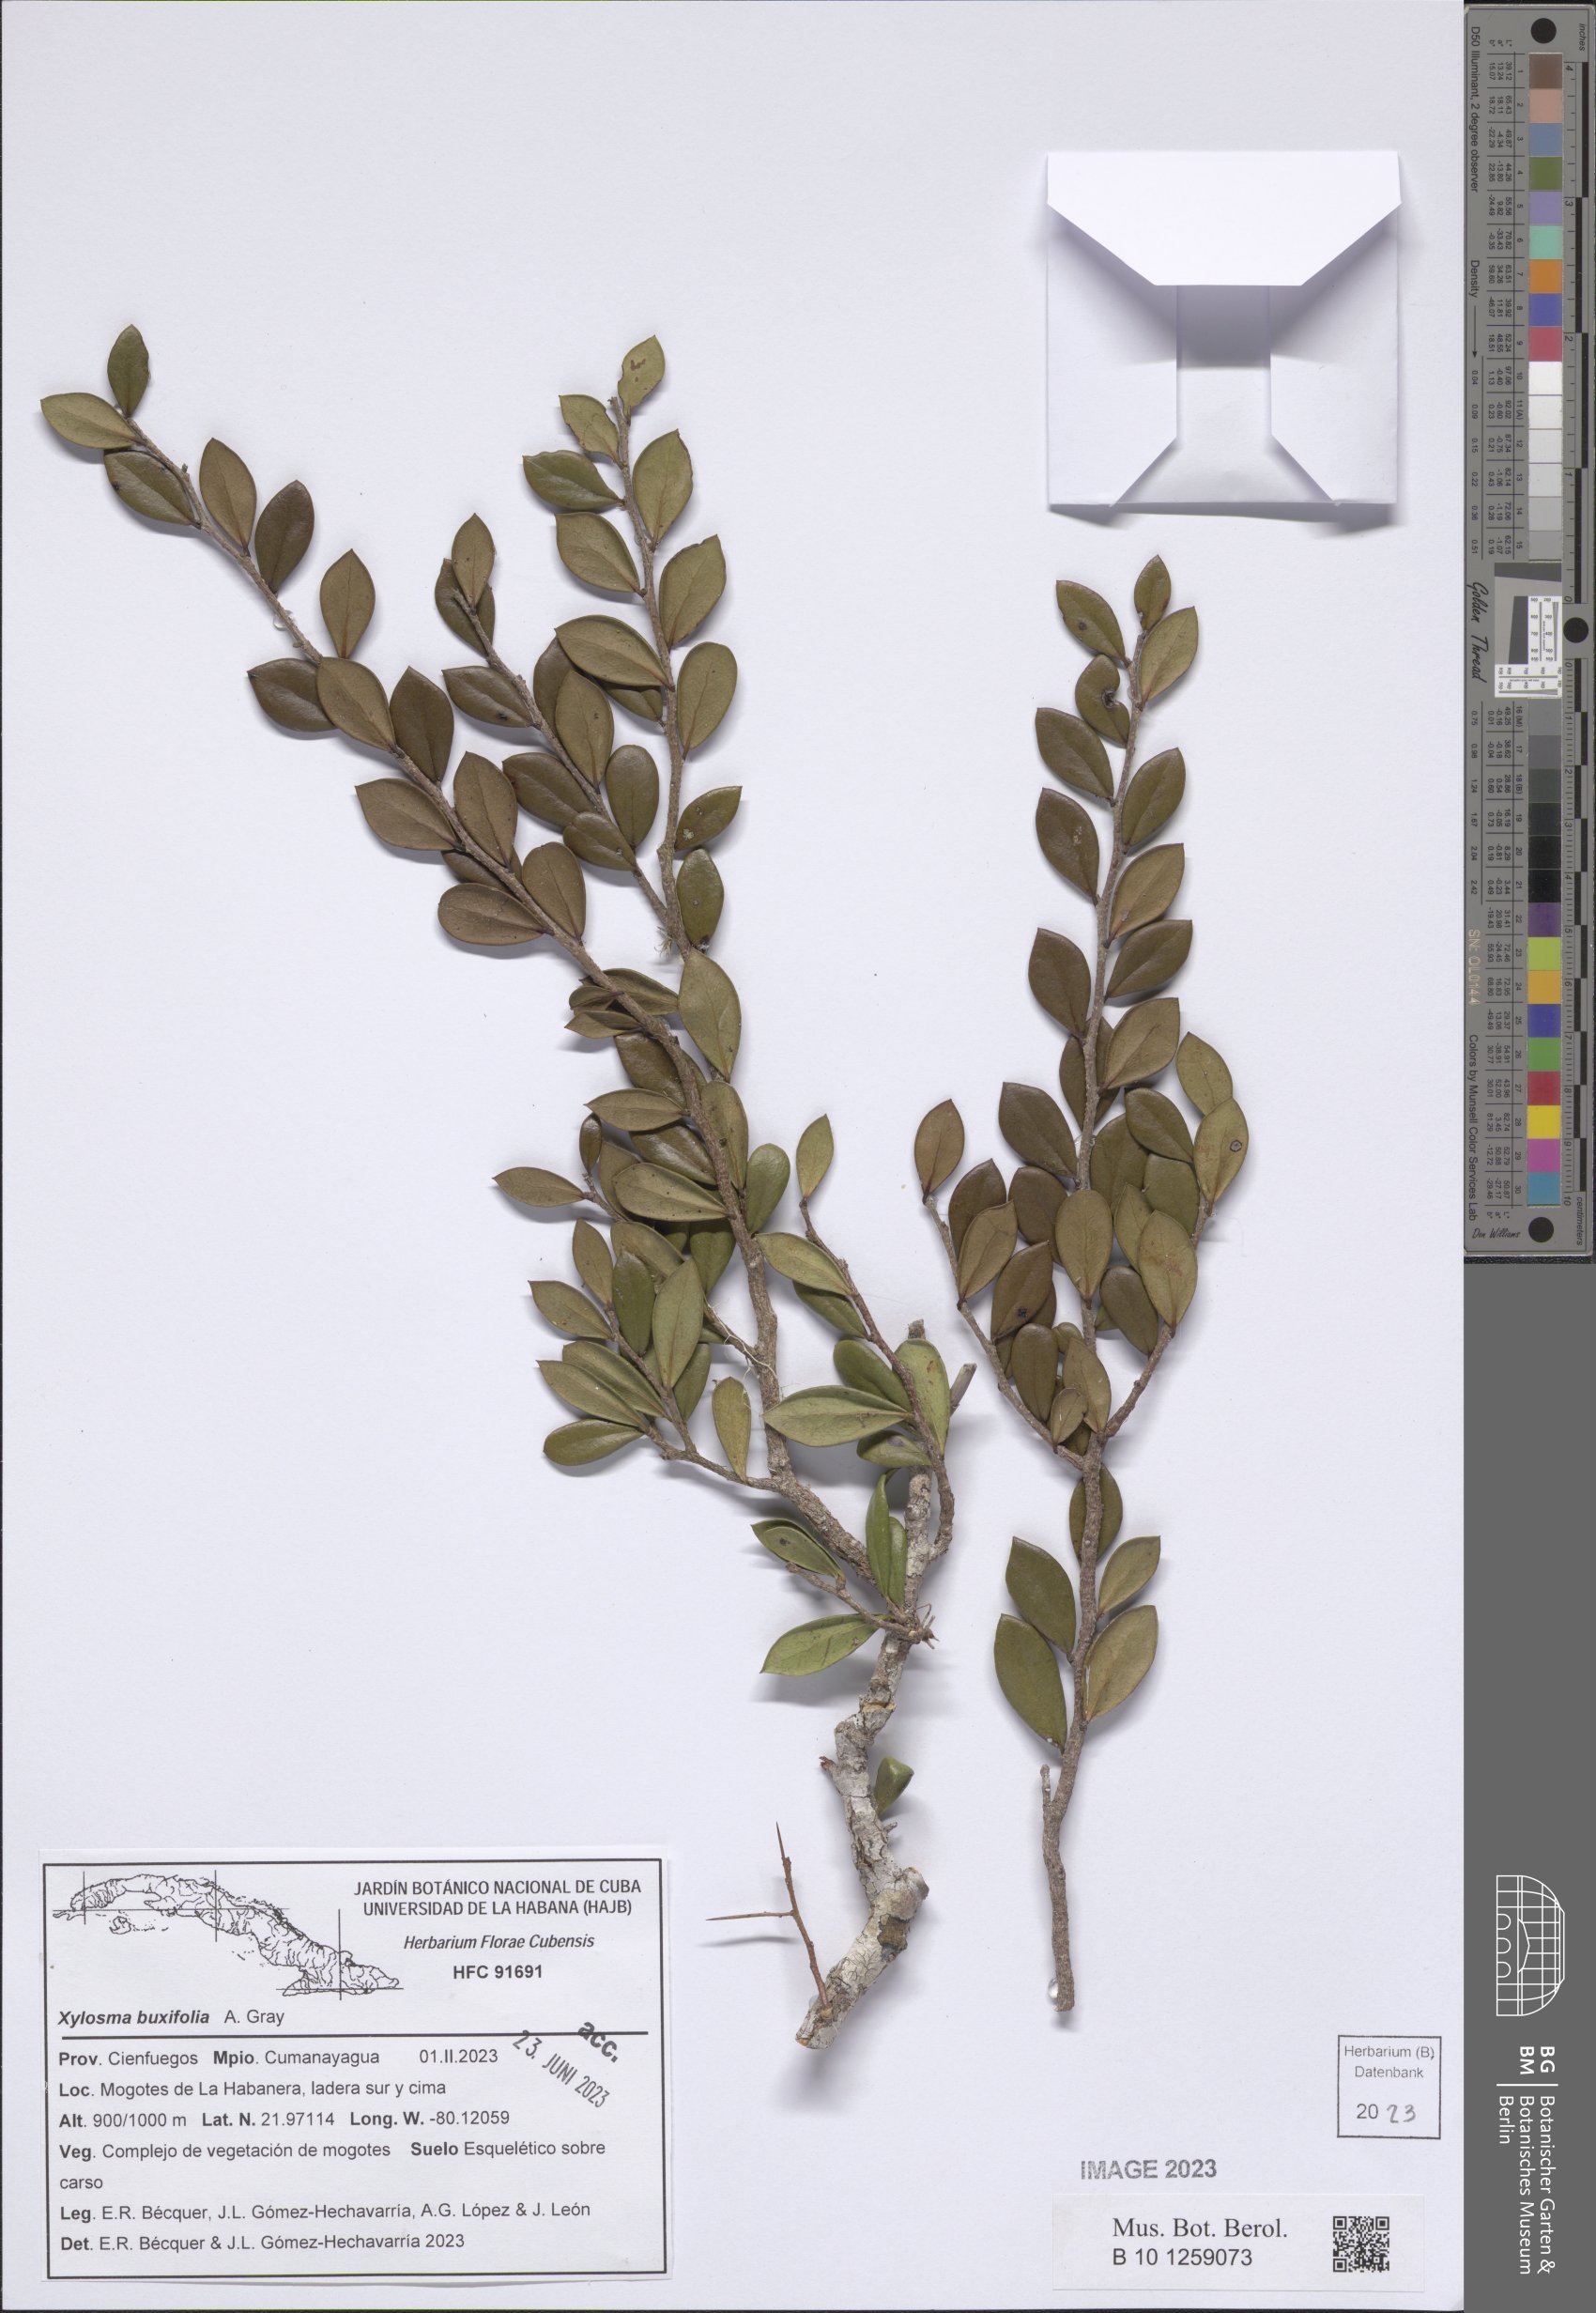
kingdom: Plantae
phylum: Tracheophyta
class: Magnoliopsida
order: Malpighiales
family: Salicaceae
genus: Xylosma
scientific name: Xylosma buxifolia
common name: Cockspur
